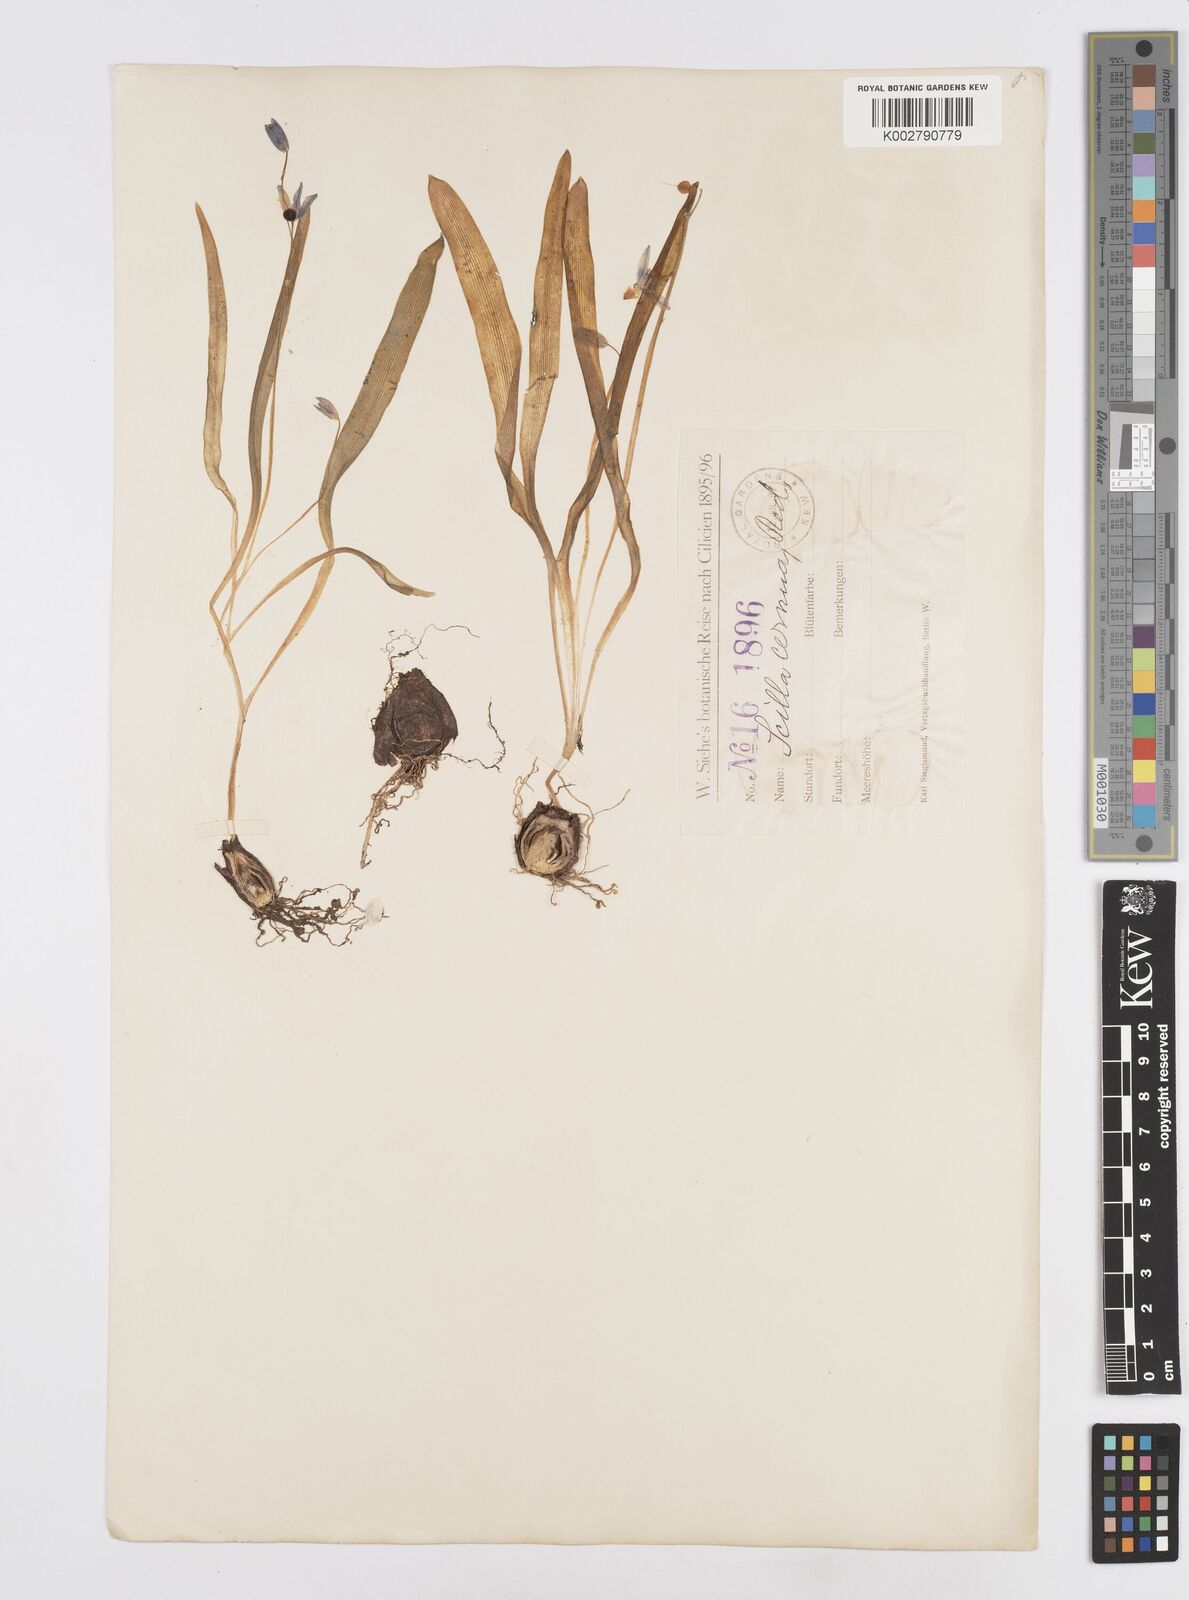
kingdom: Plantae
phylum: Tracheophyta
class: Liliopsida
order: Asparagales
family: Asparagaceae
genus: Scilla
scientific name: Scilla siberica
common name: Siberian squill
